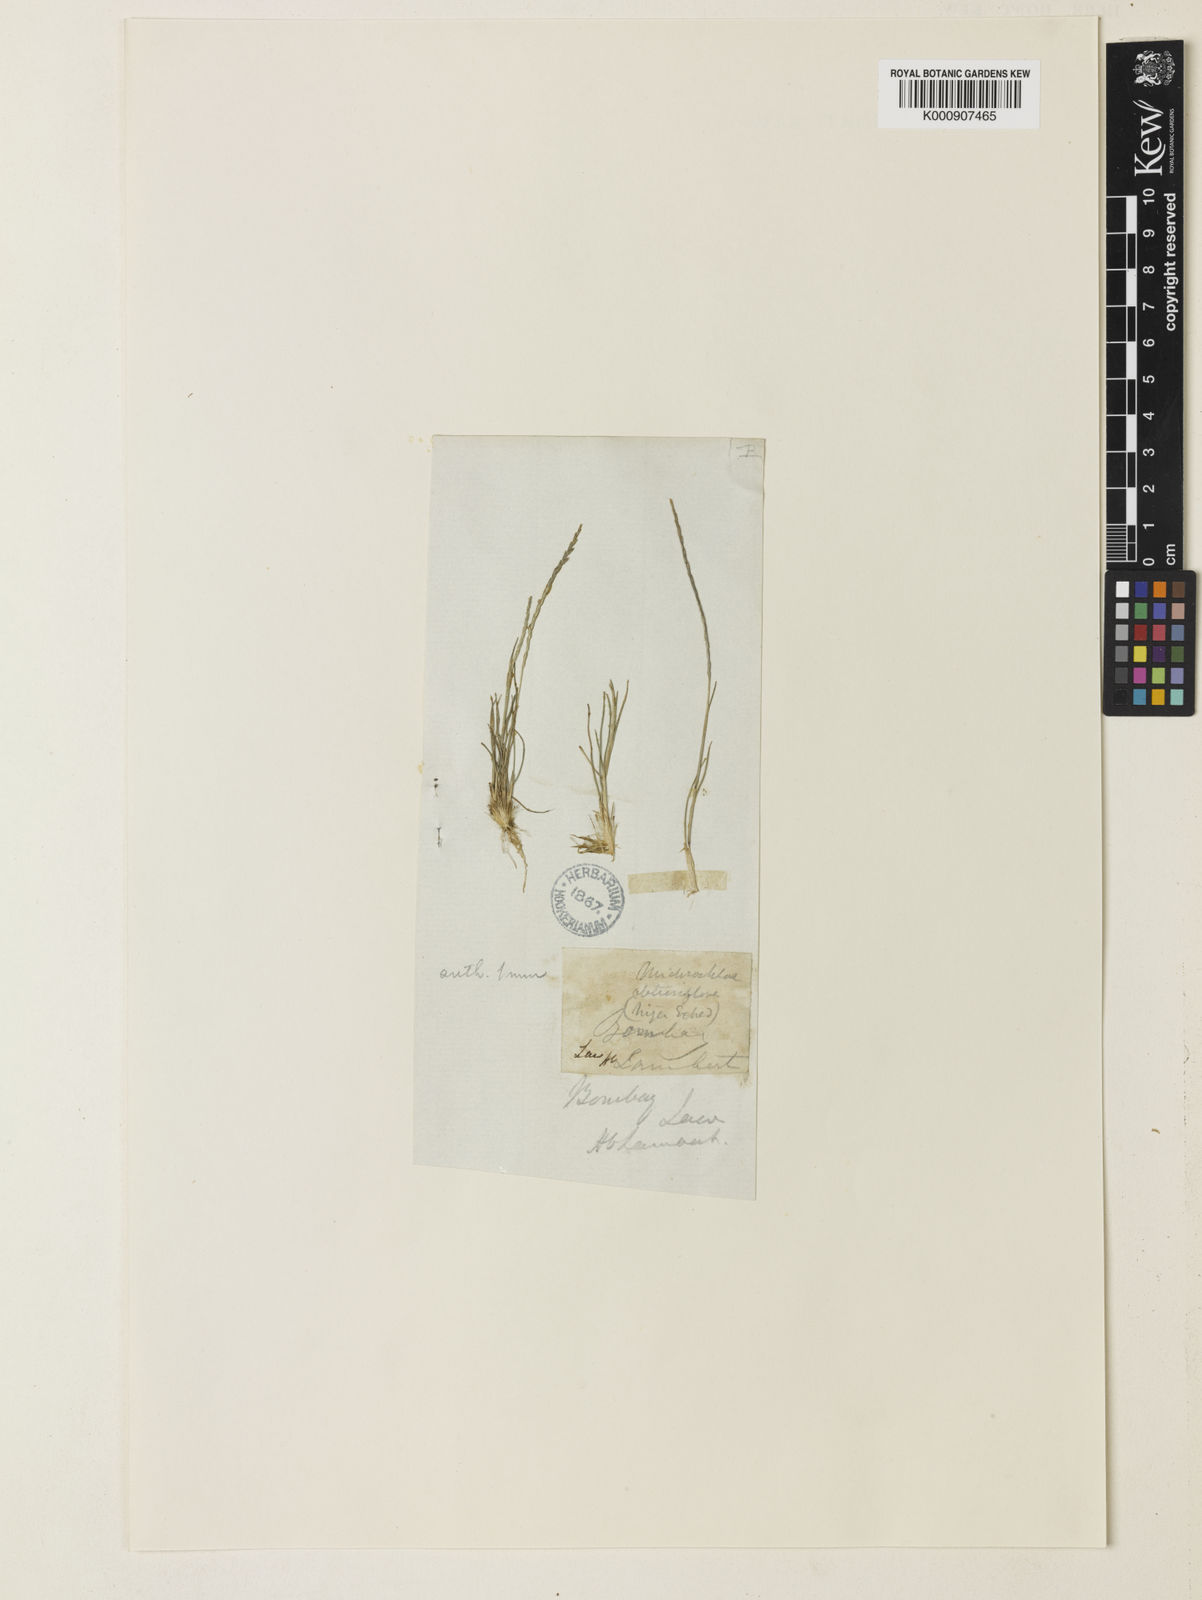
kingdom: Plantae
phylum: Tracheophyta
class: Liliopsida
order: Poales
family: Poaceae
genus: Oropetium
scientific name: Oropetium roxburghianum
